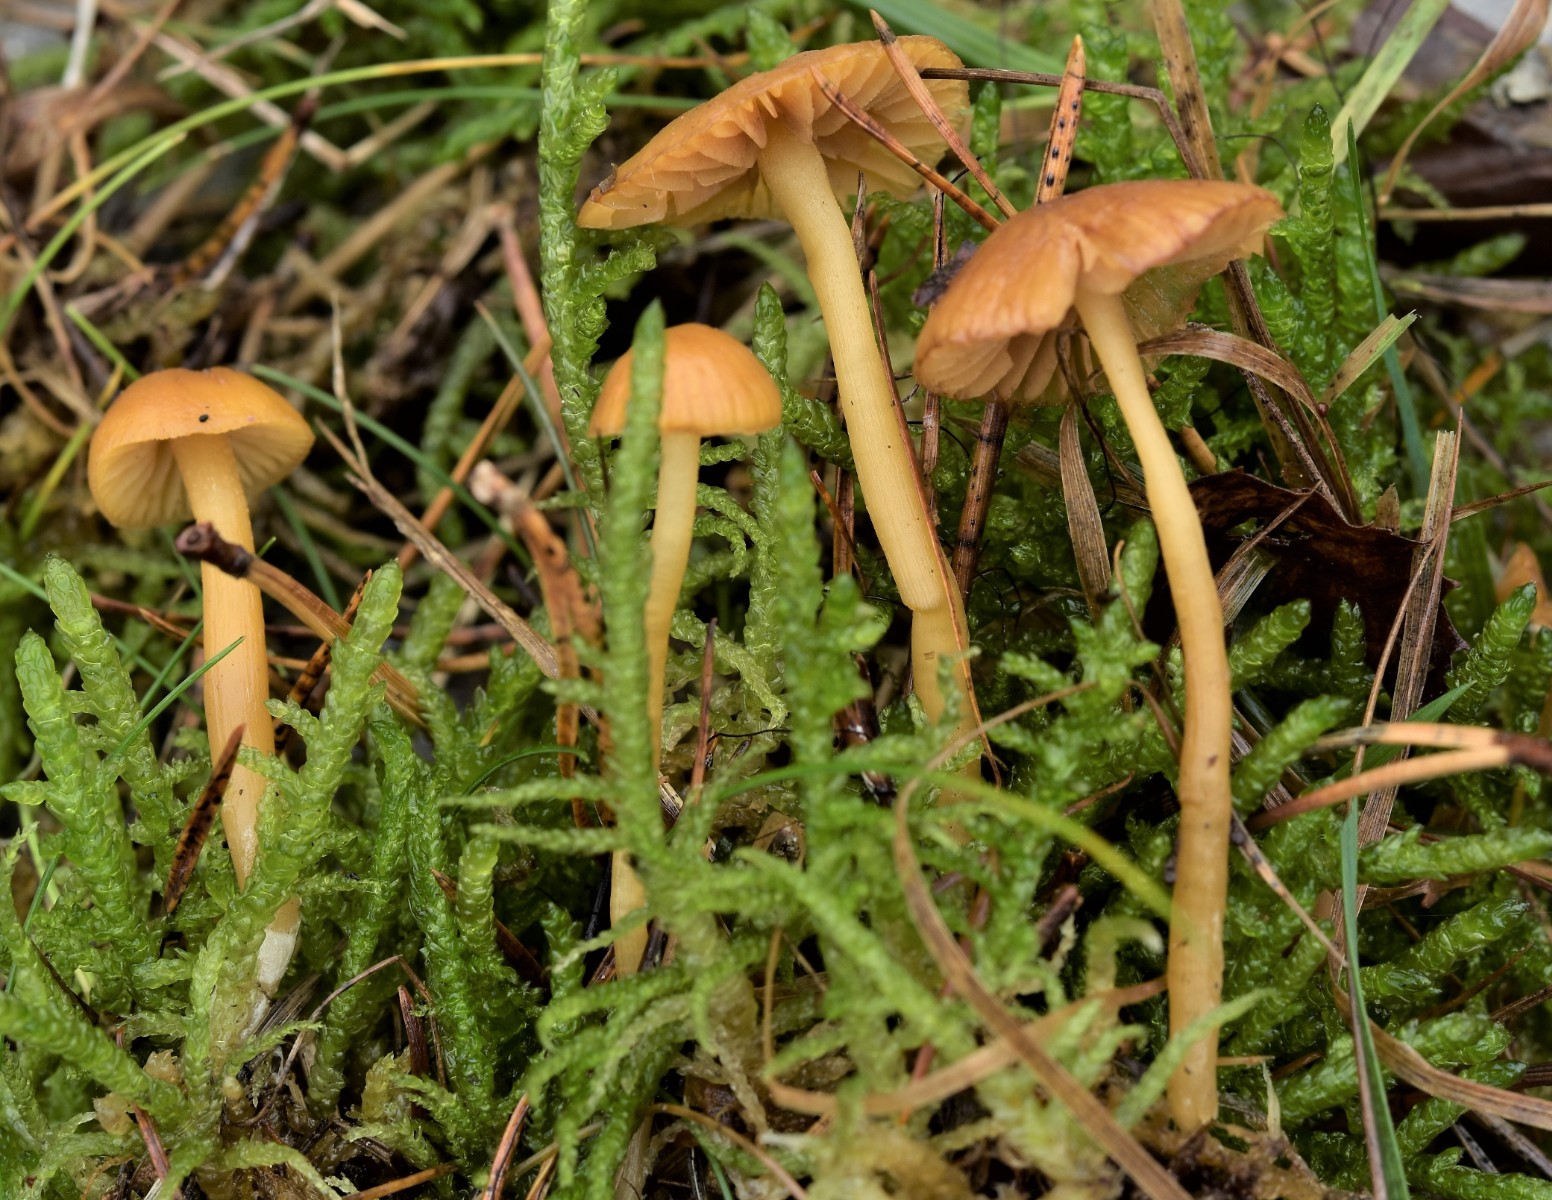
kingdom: Fungi
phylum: Basidiomycota
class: Agaricomycetes
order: Agaricales
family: Hymenogastraceae
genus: Galerina
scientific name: Galerina pumila
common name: honninggul hjelmhat
